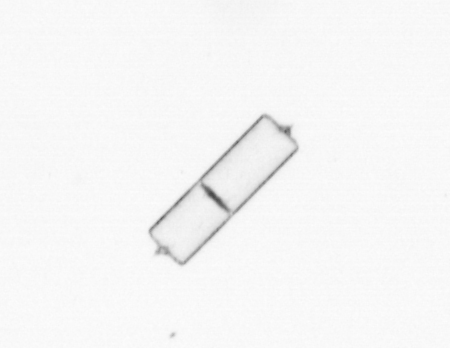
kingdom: Chromista
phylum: Ochrophyta
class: Bacillariophyceae
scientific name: Bacillariophyceae
